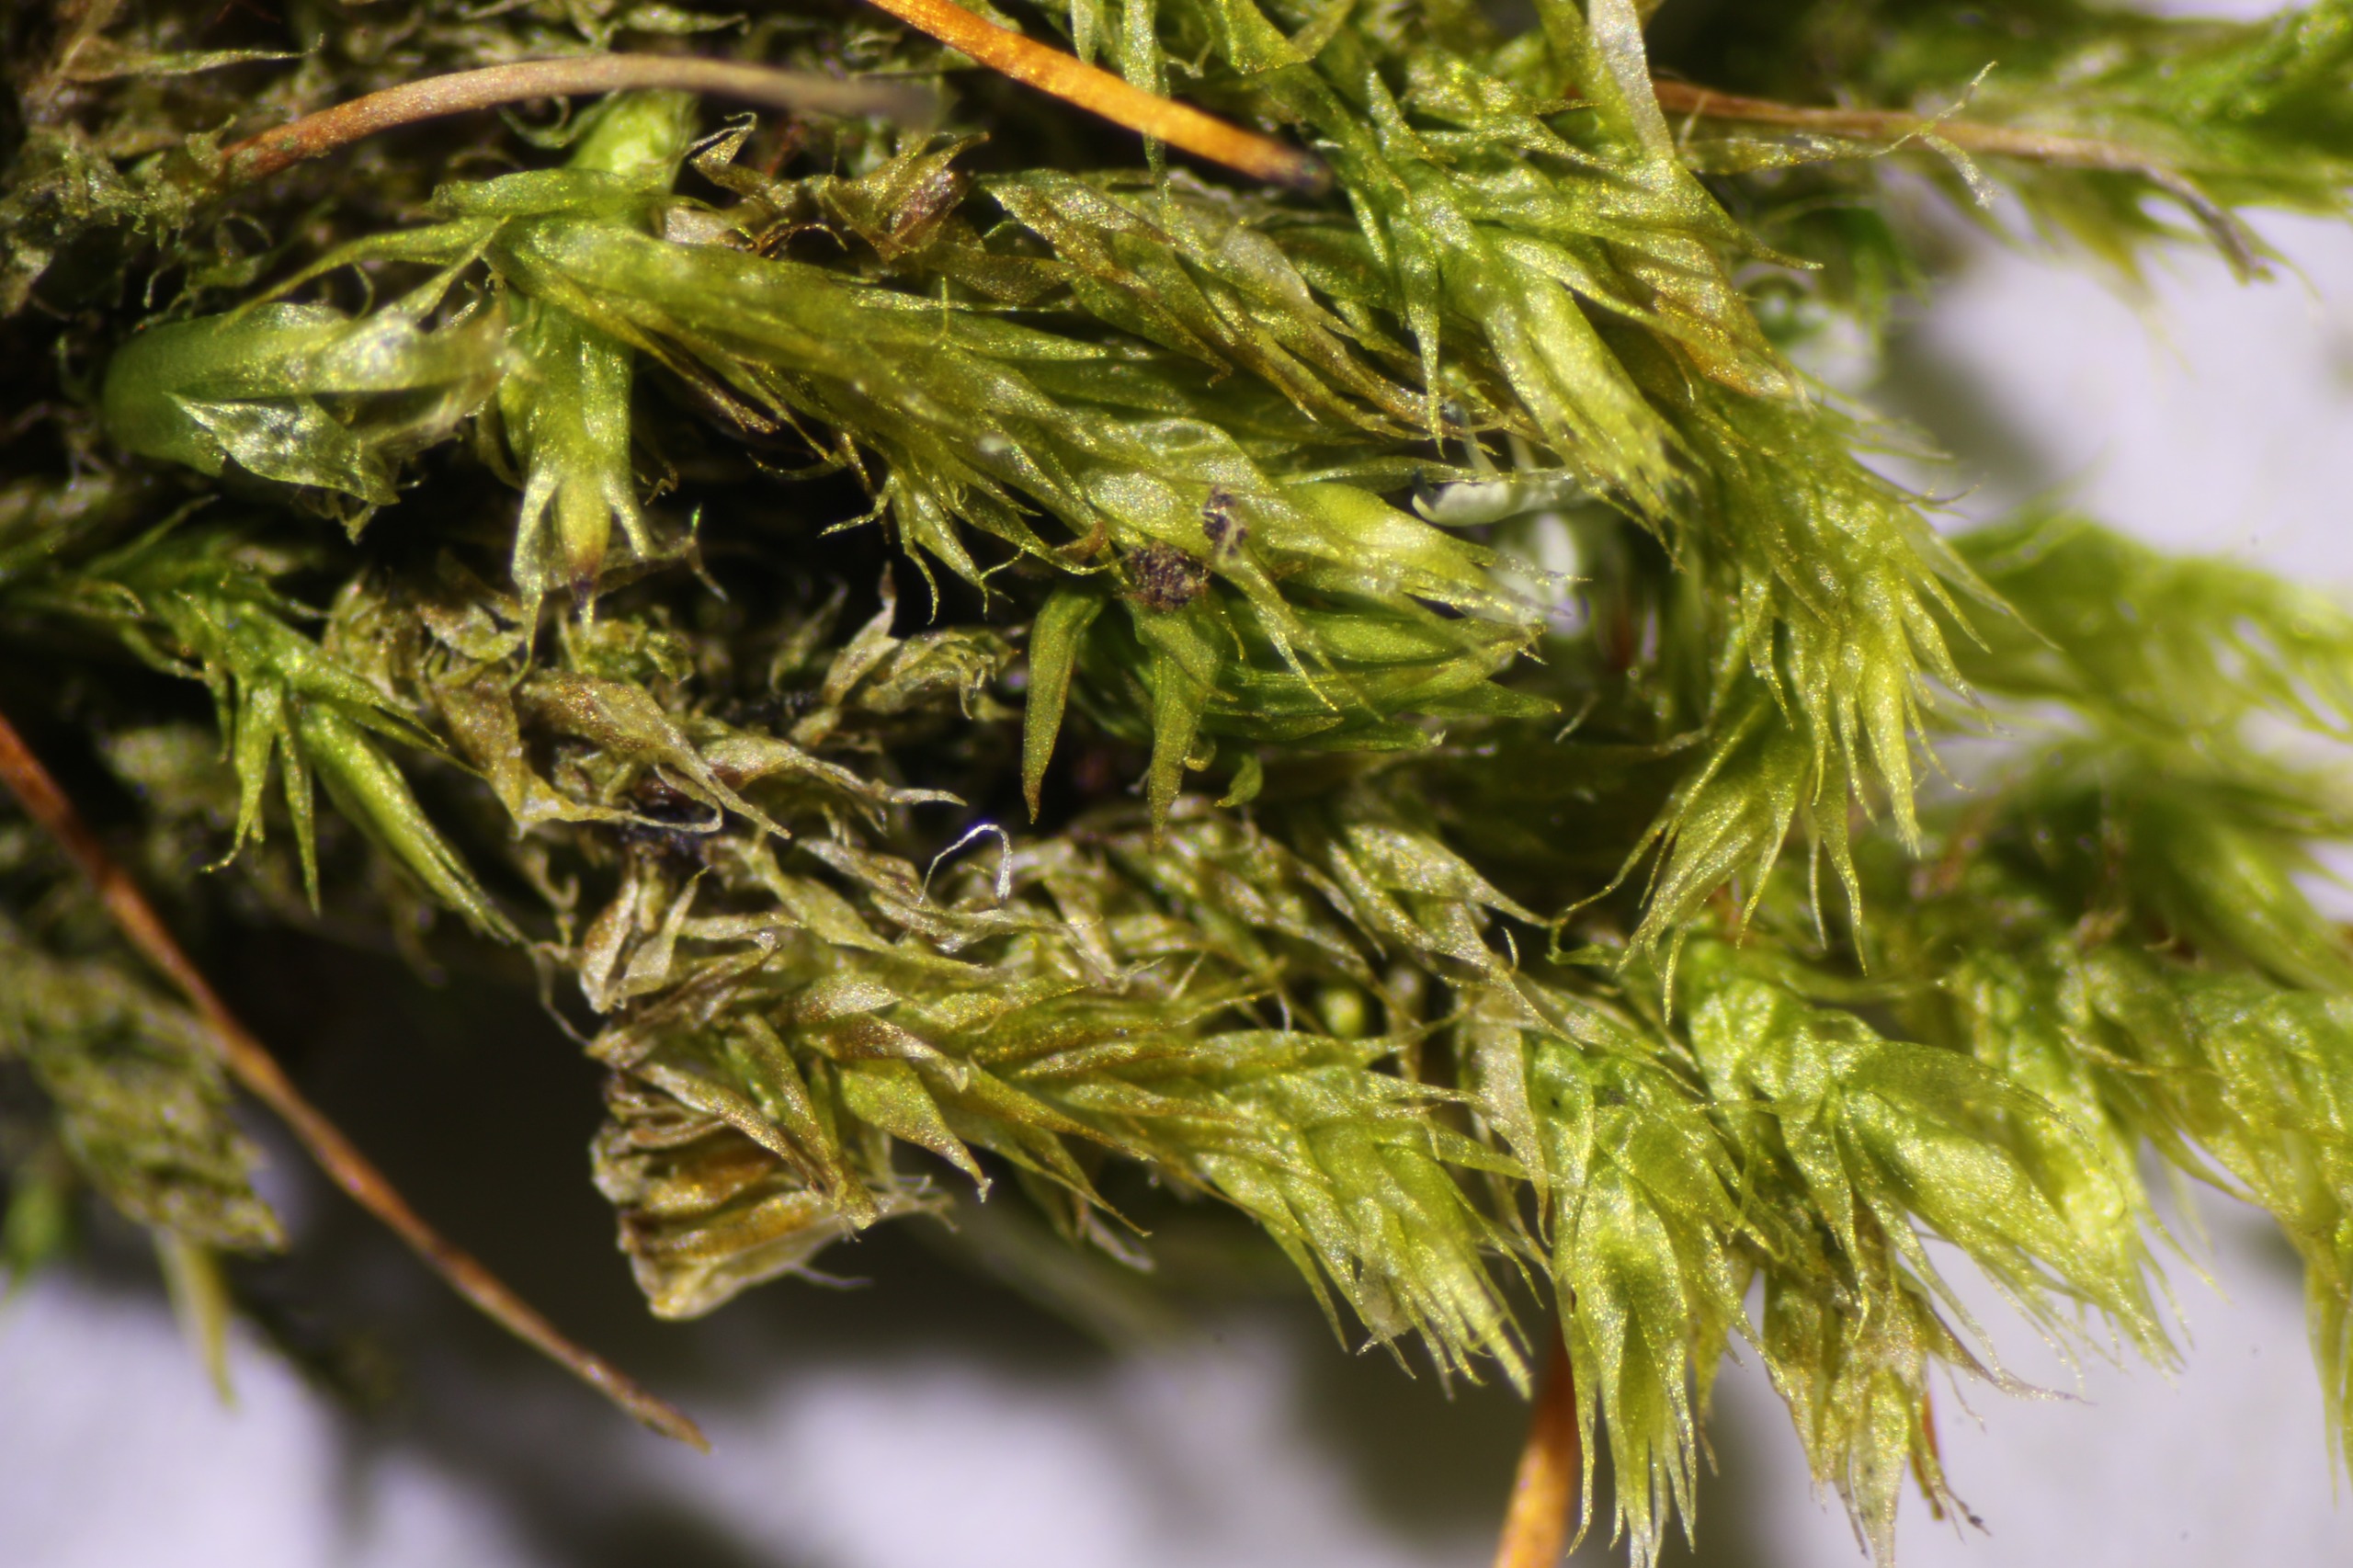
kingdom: Plantae
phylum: Bryophyta
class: Bryopsida
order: Hypnales
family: Pylaisiaceae
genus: Pylaisia
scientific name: Pylaisia polyantha
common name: Mangefrugtet aspemos
